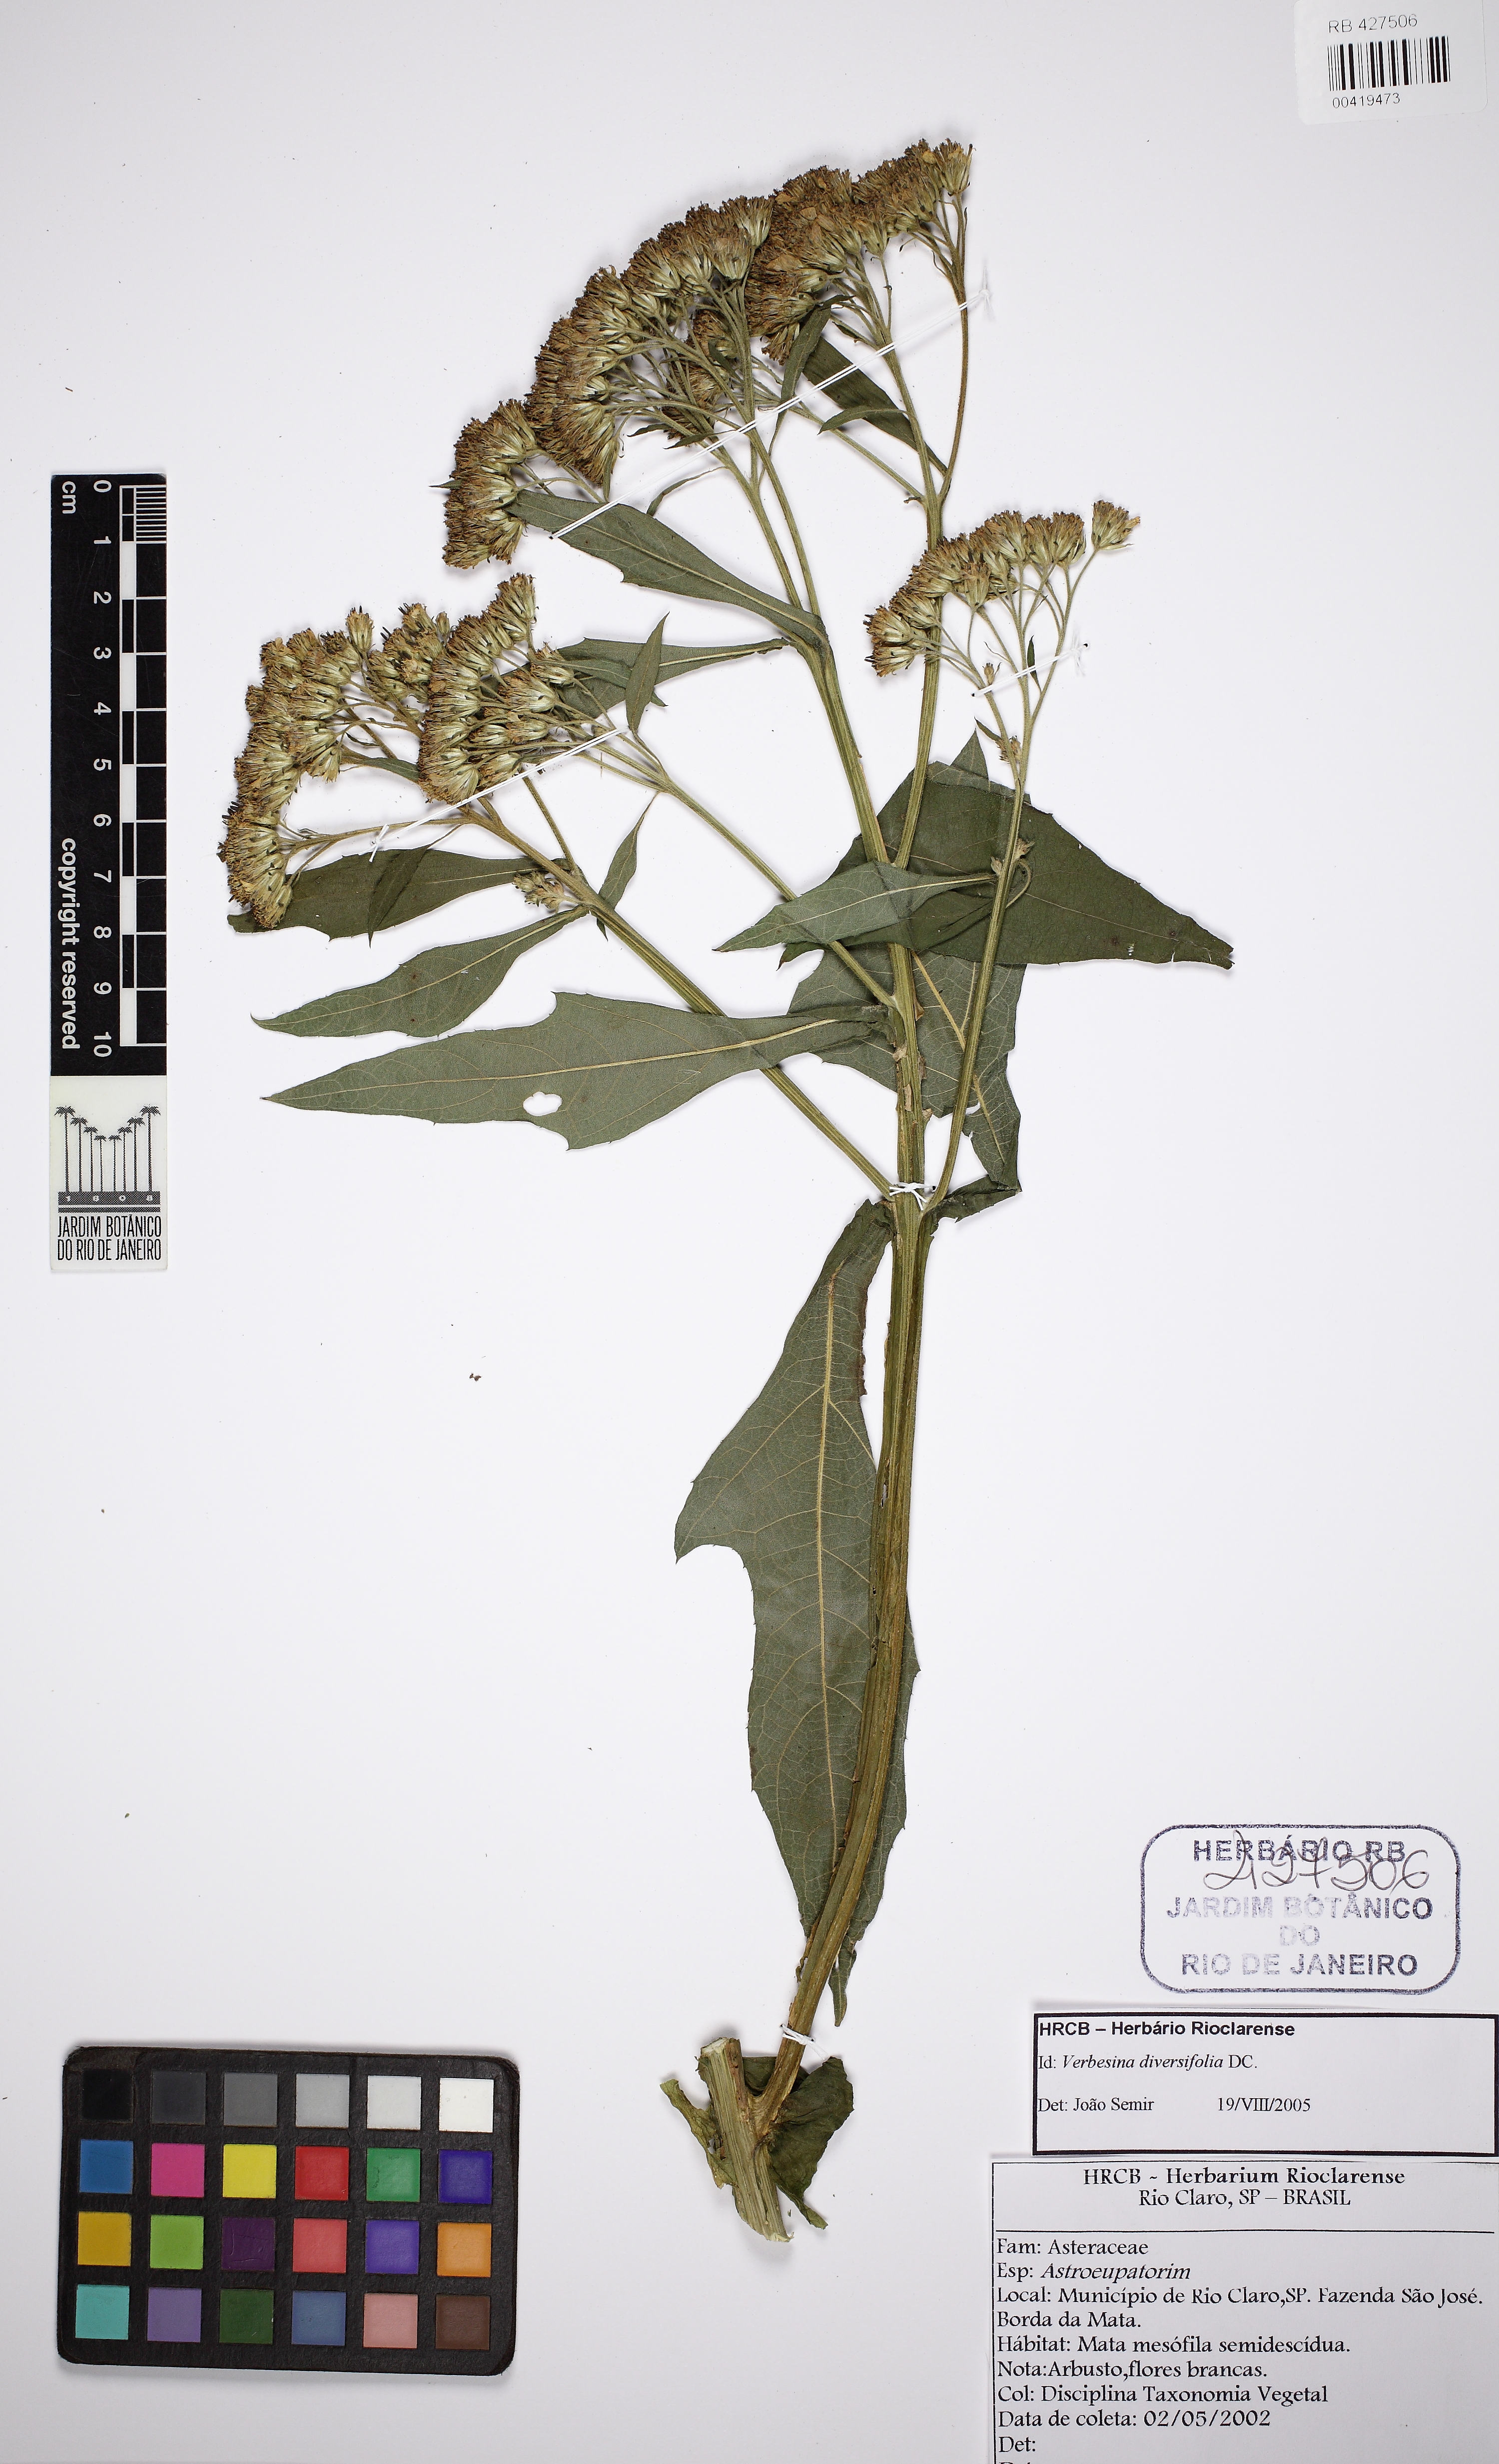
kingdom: Plantae
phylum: Tracheophyta
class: Magnoliopsida
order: Asterales
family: Asteraceae
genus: Verbesina
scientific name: Verbesina diversifolia
